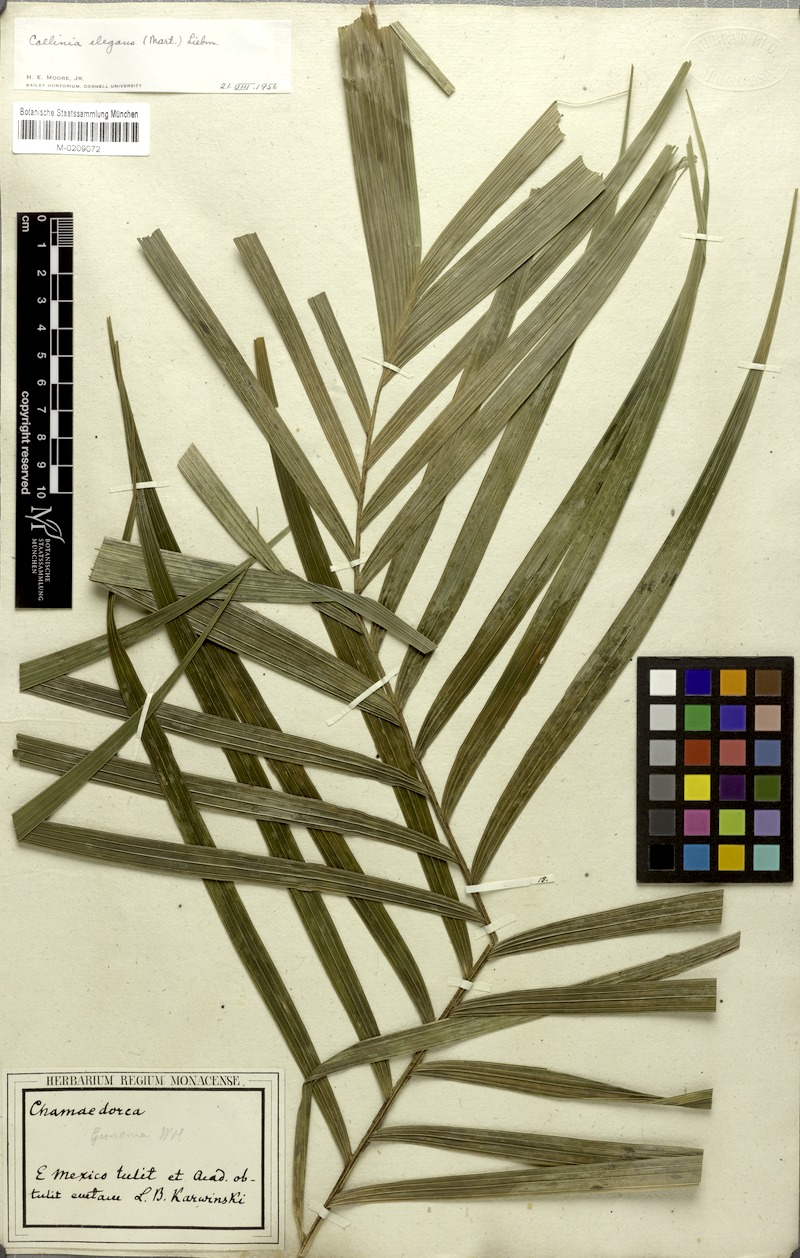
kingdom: Plantae
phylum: Tracheophyta
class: Liliopsida
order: Arecales
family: Arecaceae
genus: Chamaedorea
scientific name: Chamaedorea elegans
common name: Good-luck palm
